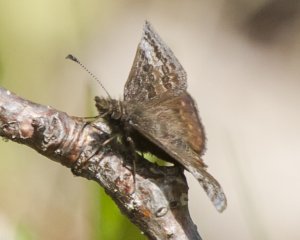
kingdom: Animalia
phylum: Arthropoda
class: Insecta
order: Lepidoptera
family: Hesperiidae
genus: Erynnis
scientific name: Erynnis icelus
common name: Dreamy Duskywing
